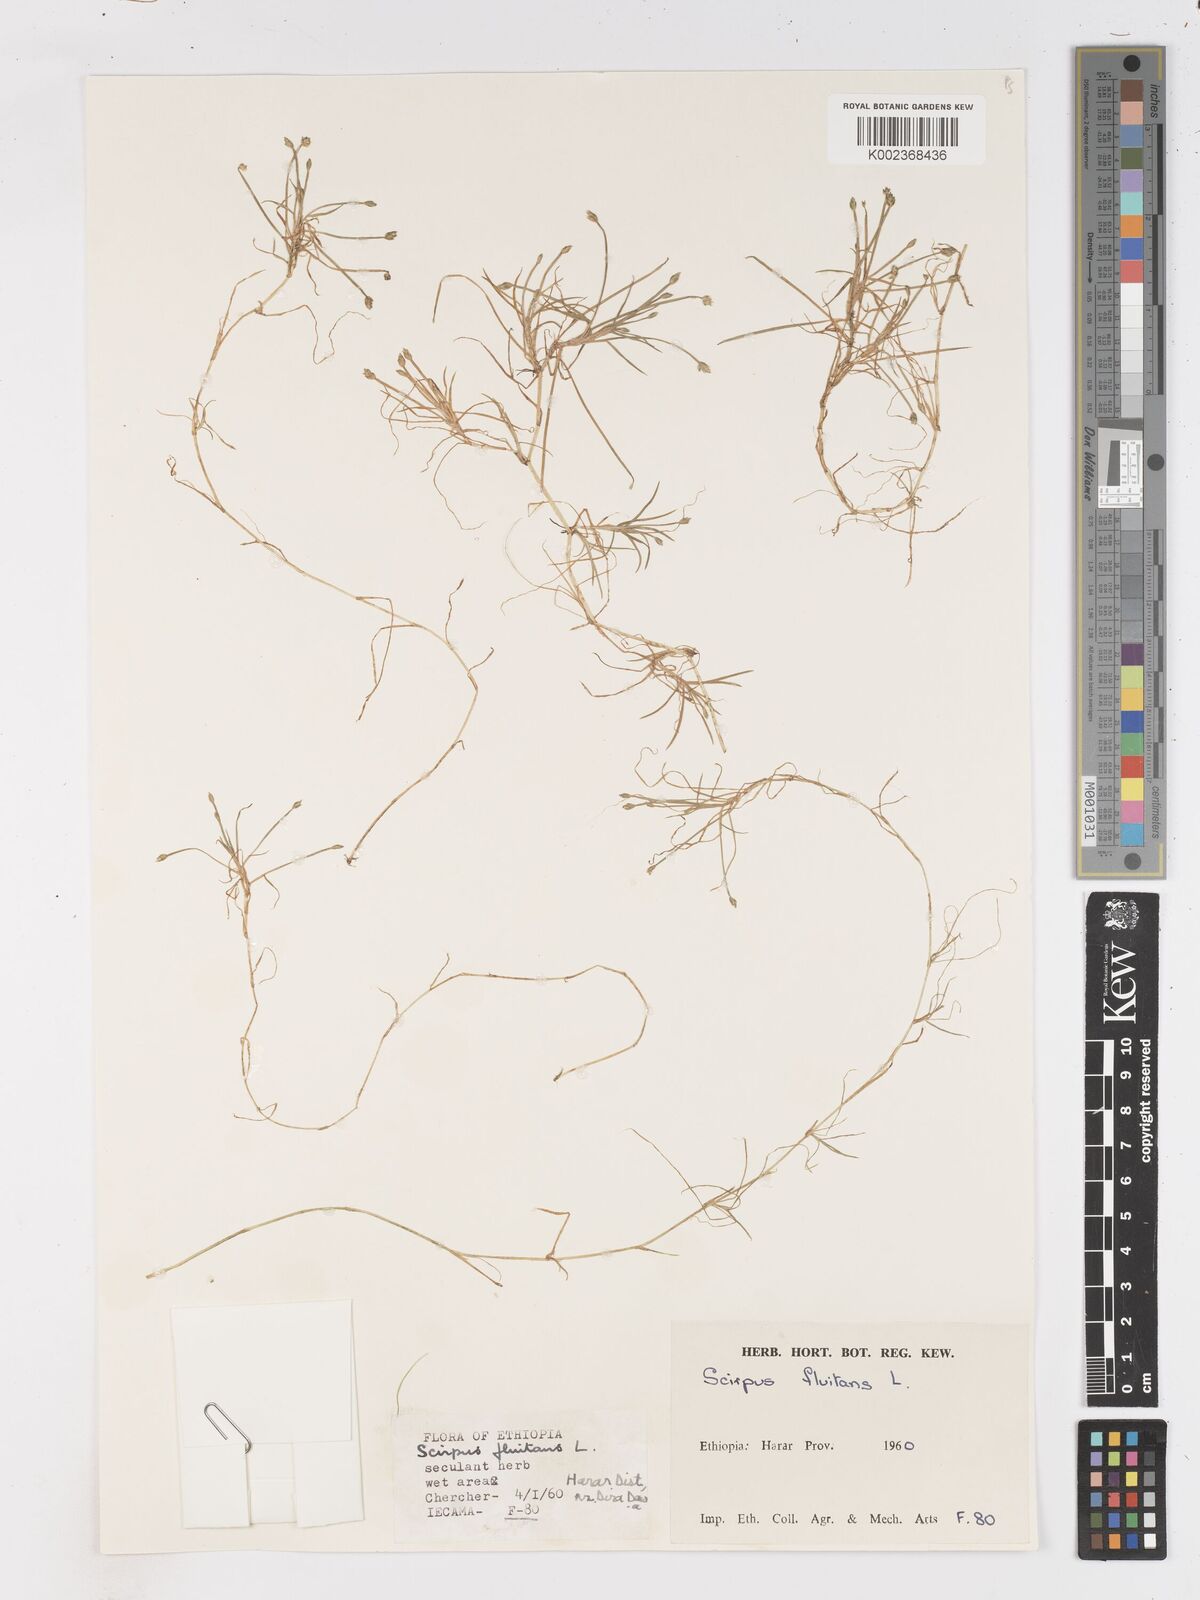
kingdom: Plantae
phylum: Tracheophyta
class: Liliopsida
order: Poales
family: Cyperaceae
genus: Isolepis
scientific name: Isolepis fluitans
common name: Floating club-rush
